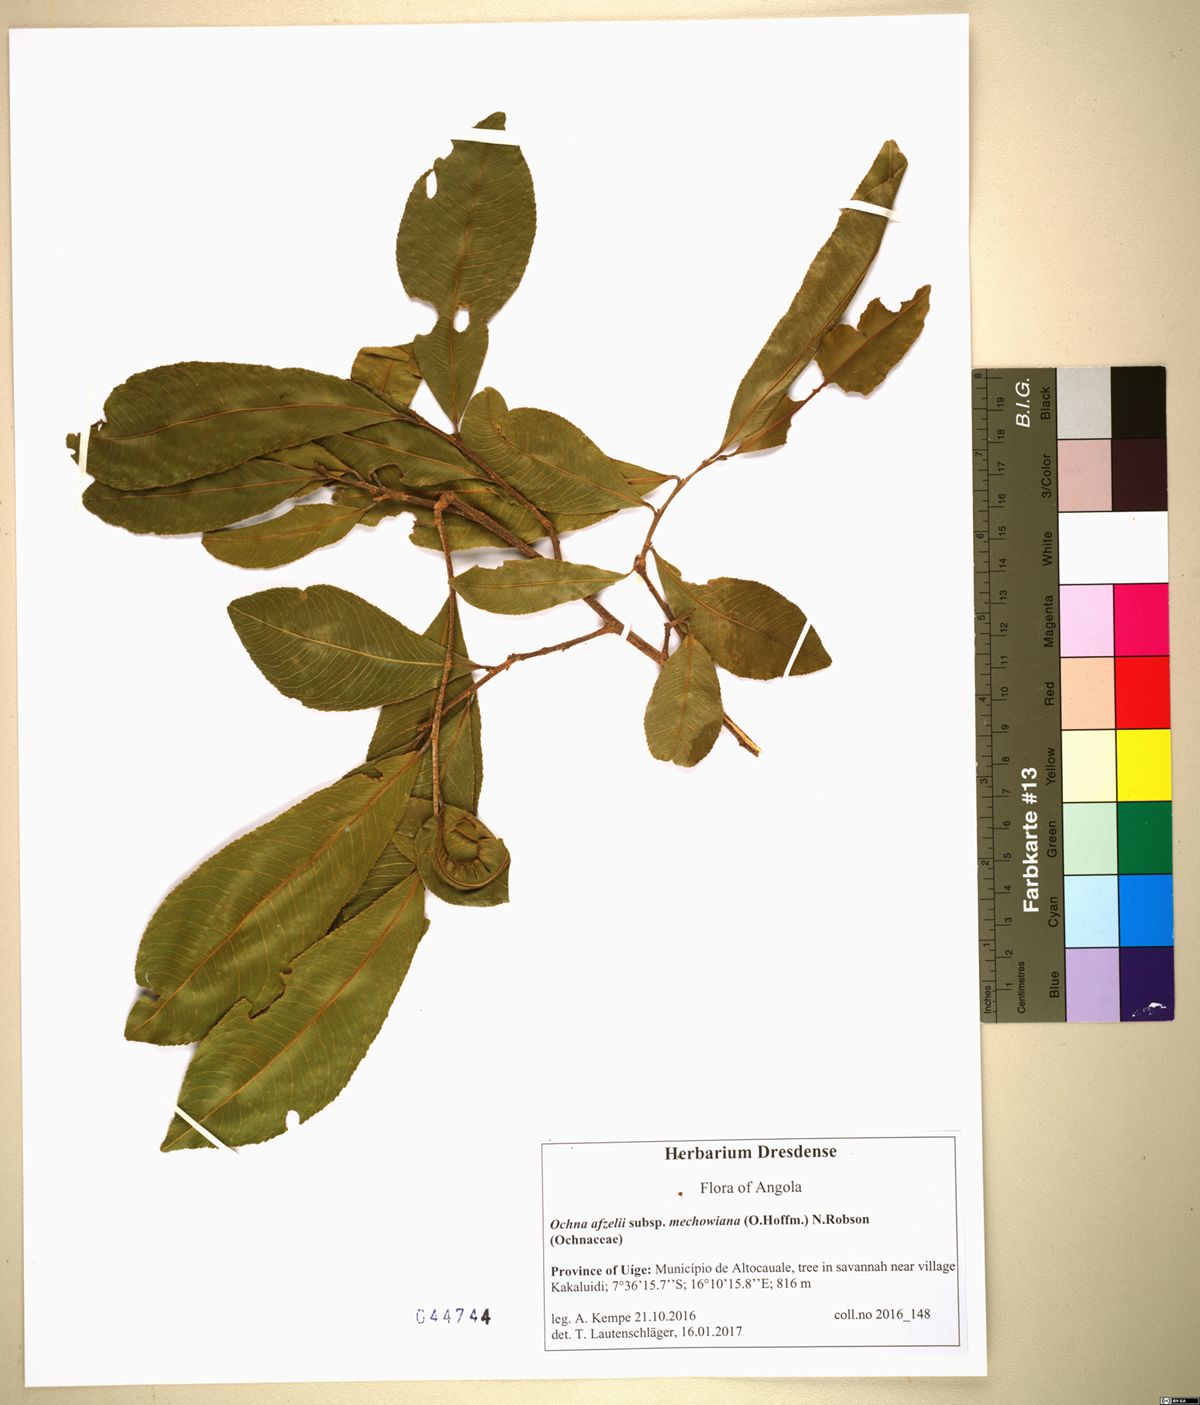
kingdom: Plantae
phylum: Tracheophyta
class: Magnoliopsida
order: Malpighiales
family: Ochnaceae
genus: Ochna
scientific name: Ochna afzelii
